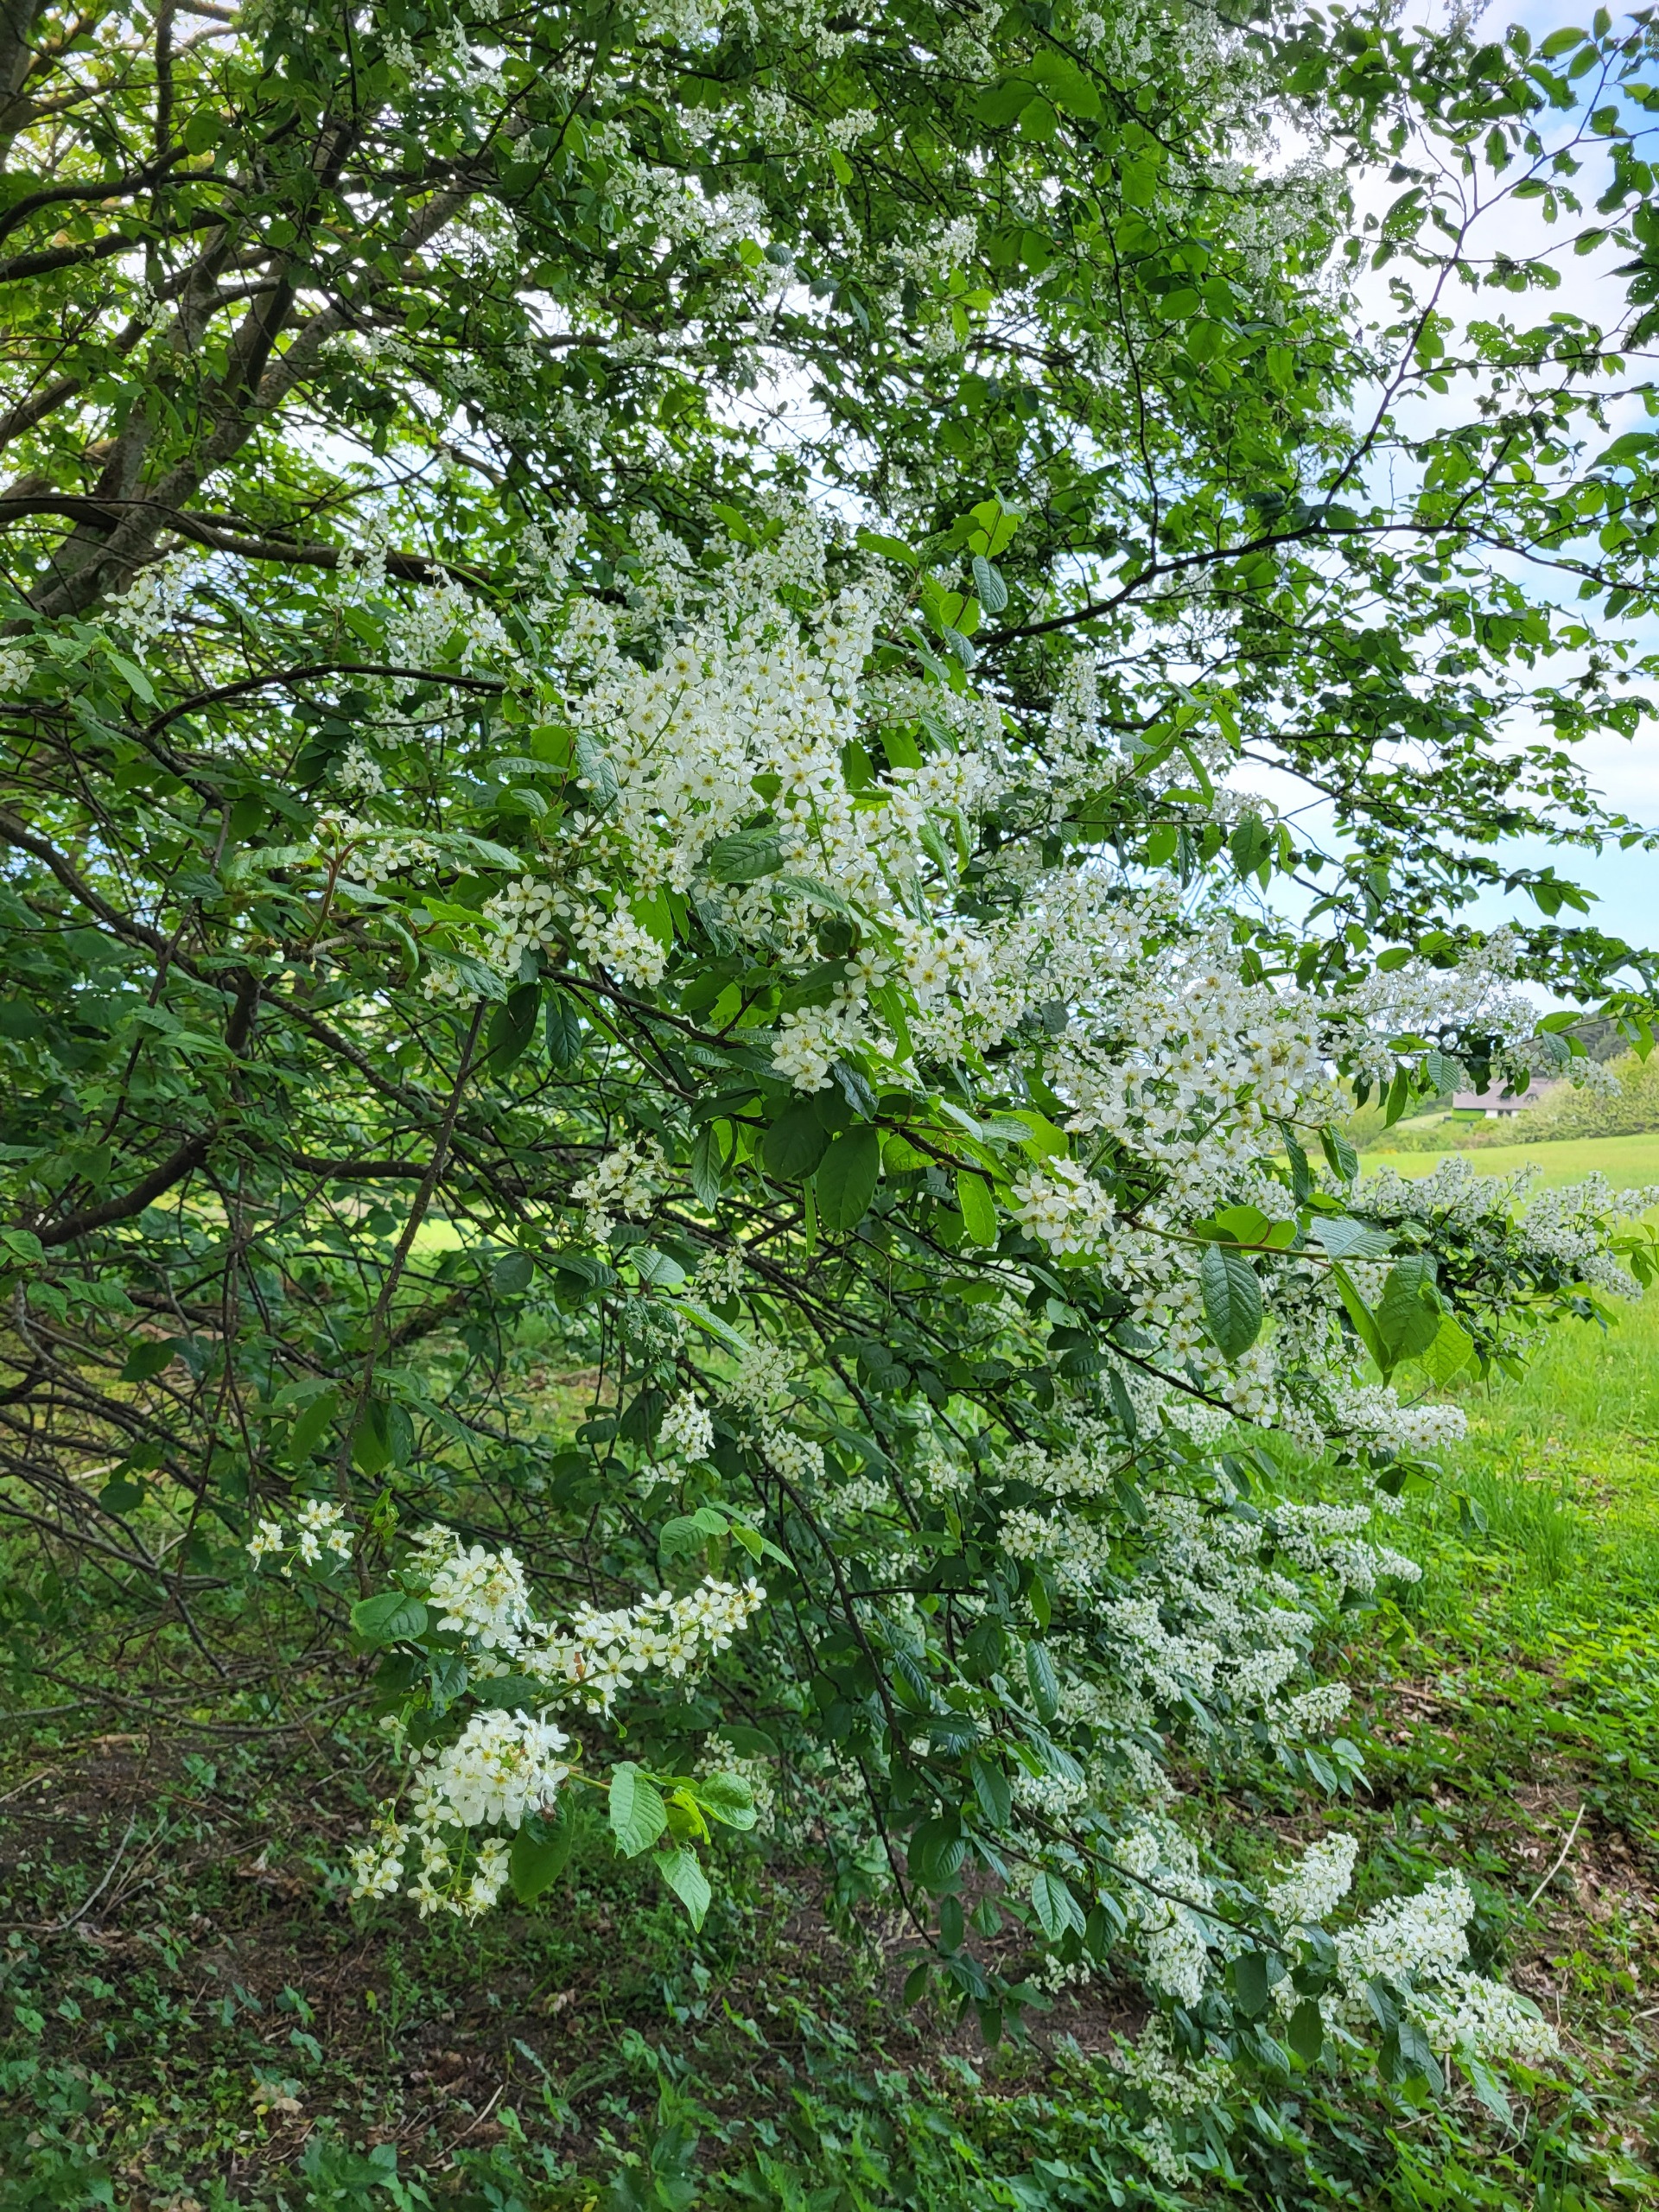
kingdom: Plantae
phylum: Tracheophyta
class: Magnoliopsida
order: Rosales
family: Rosaceae
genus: Prunus
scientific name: Prunus padus
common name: Almindelig hæg
